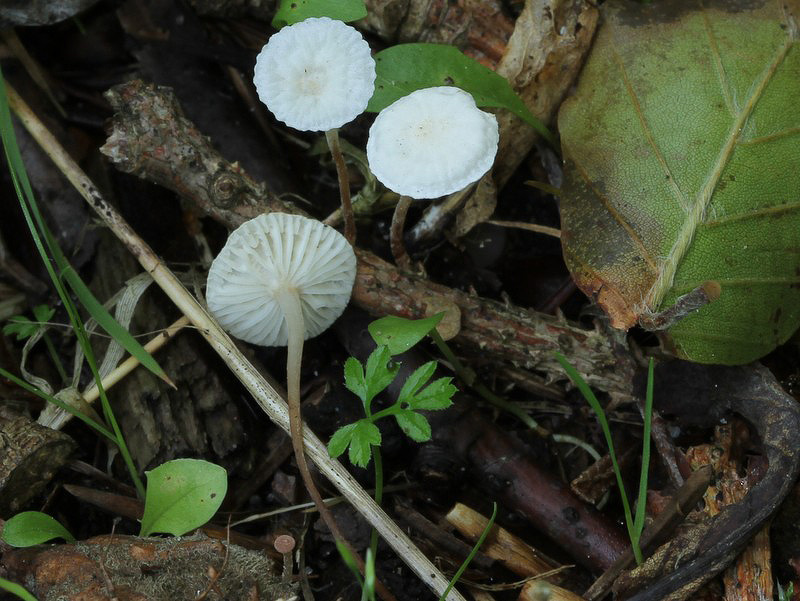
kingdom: Fungi
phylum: Basidiomycota
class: Agaricomycetes
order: Agaricales
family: Omphalotaceae
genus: Collybiopsis
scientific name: Collybiopsis vaillantii
